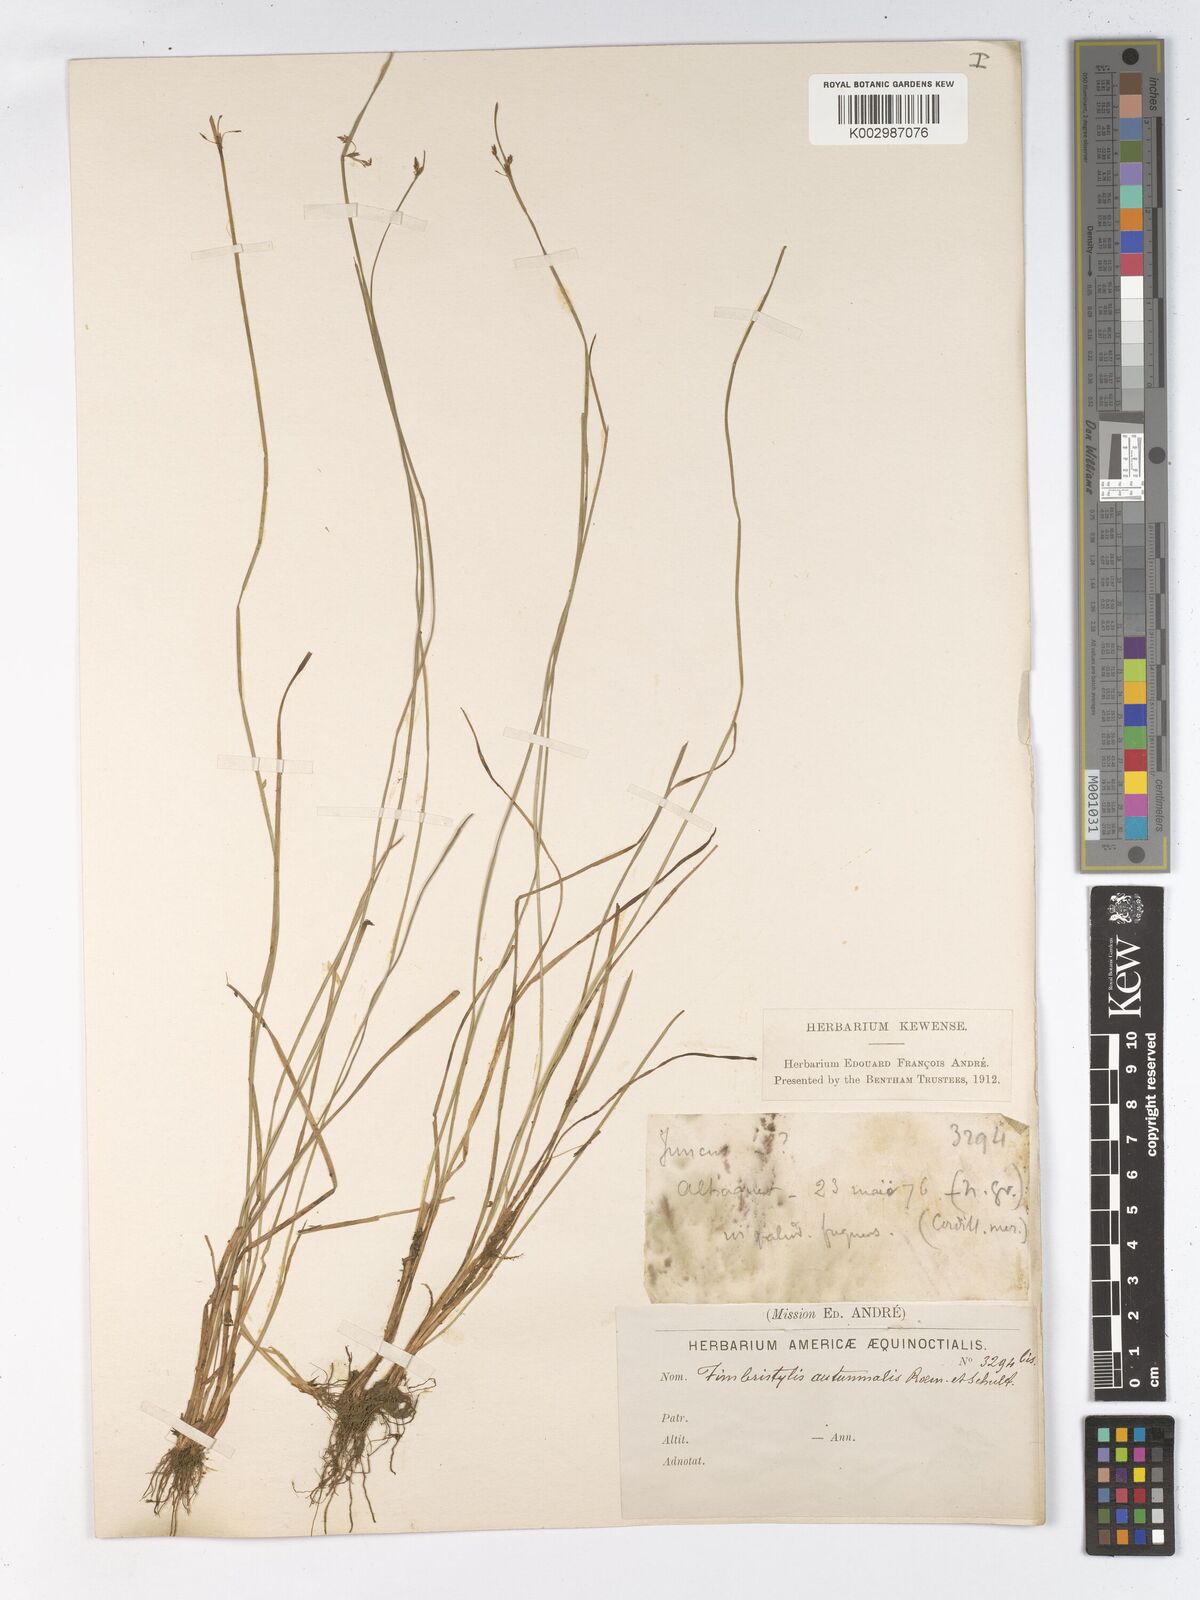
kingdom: Plantae
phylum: Tracheophyta
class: Liliopsida
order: Poales
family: Cyperaceae
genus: Fimbristylis
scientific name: Fimbristylis autumnalis
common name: Slender fimbristylis
